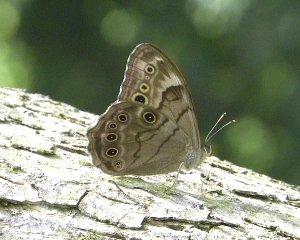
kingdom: Animalia
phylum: Arthropoda
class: Insecta
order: Lepidoptera
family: Nymphalidae
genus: Lethe
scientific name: Lethe anthedon
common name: Northern Pearly-Eye
